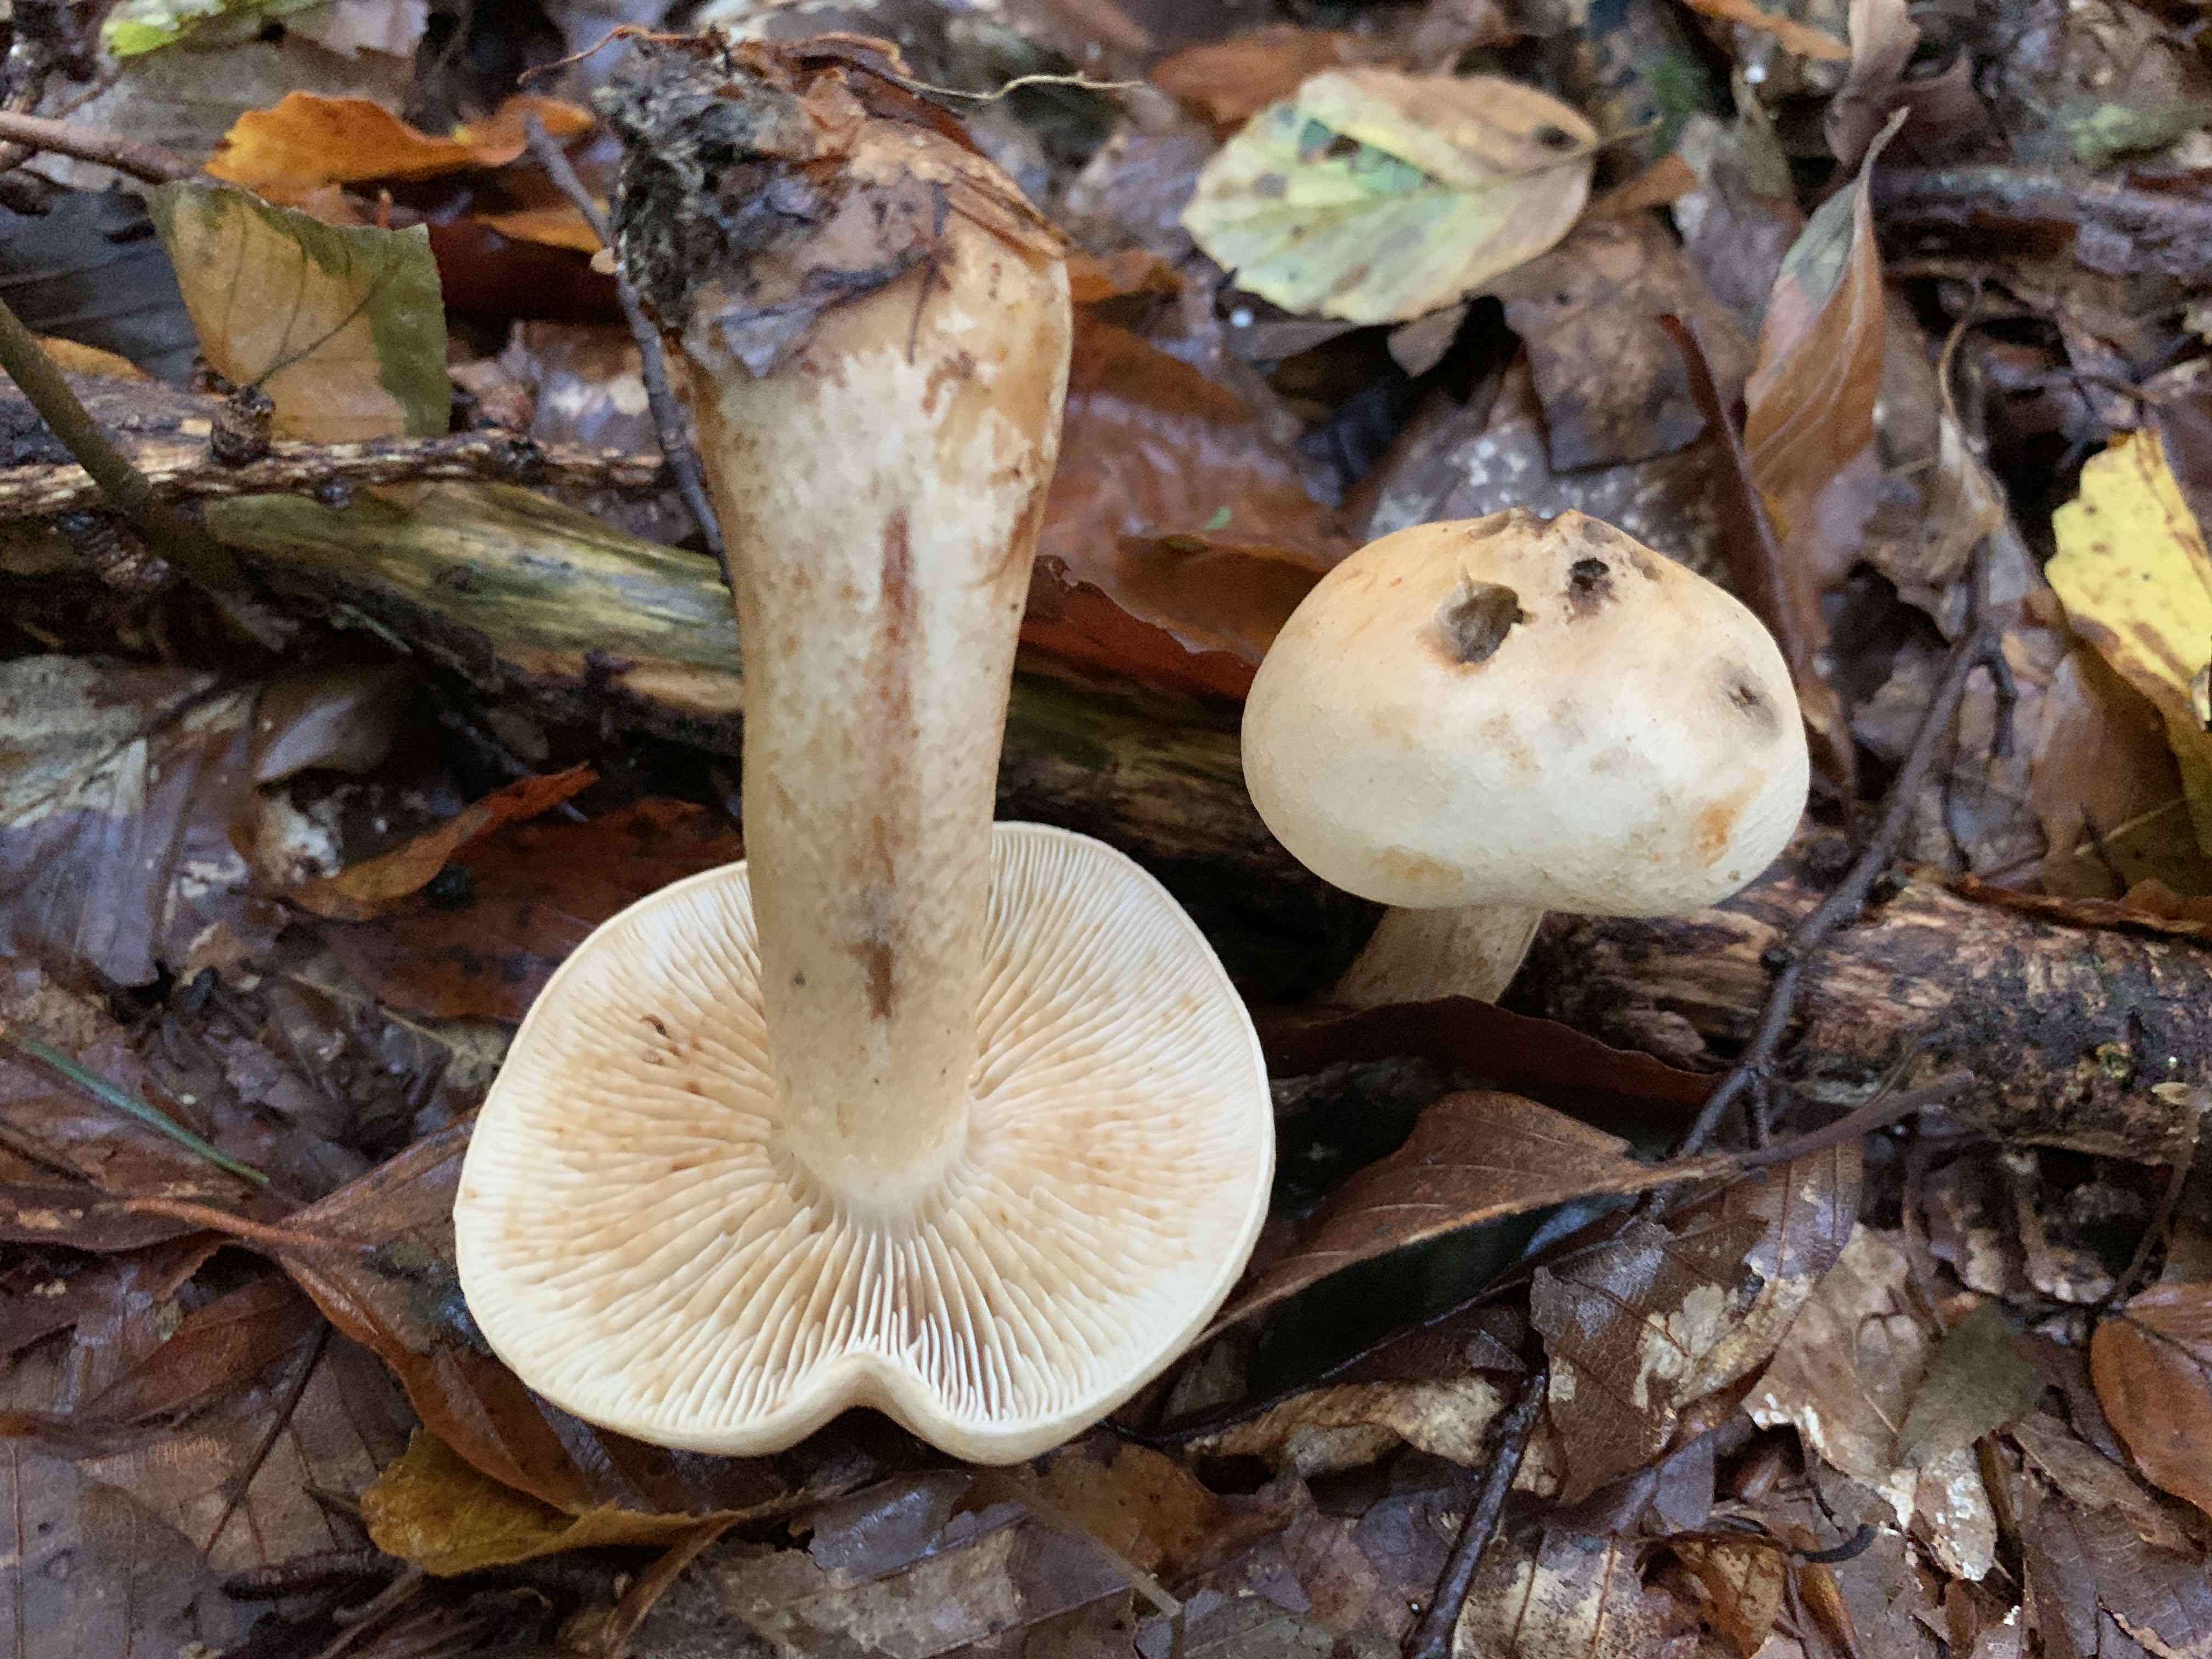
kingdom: Fungi
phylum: Basidiomycota
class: Agaricomycetes
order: Agaricales
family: Tricholomataceae
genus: Tricholoma
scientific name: Tricholoma psammopus
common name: grynstokket ridderhat
